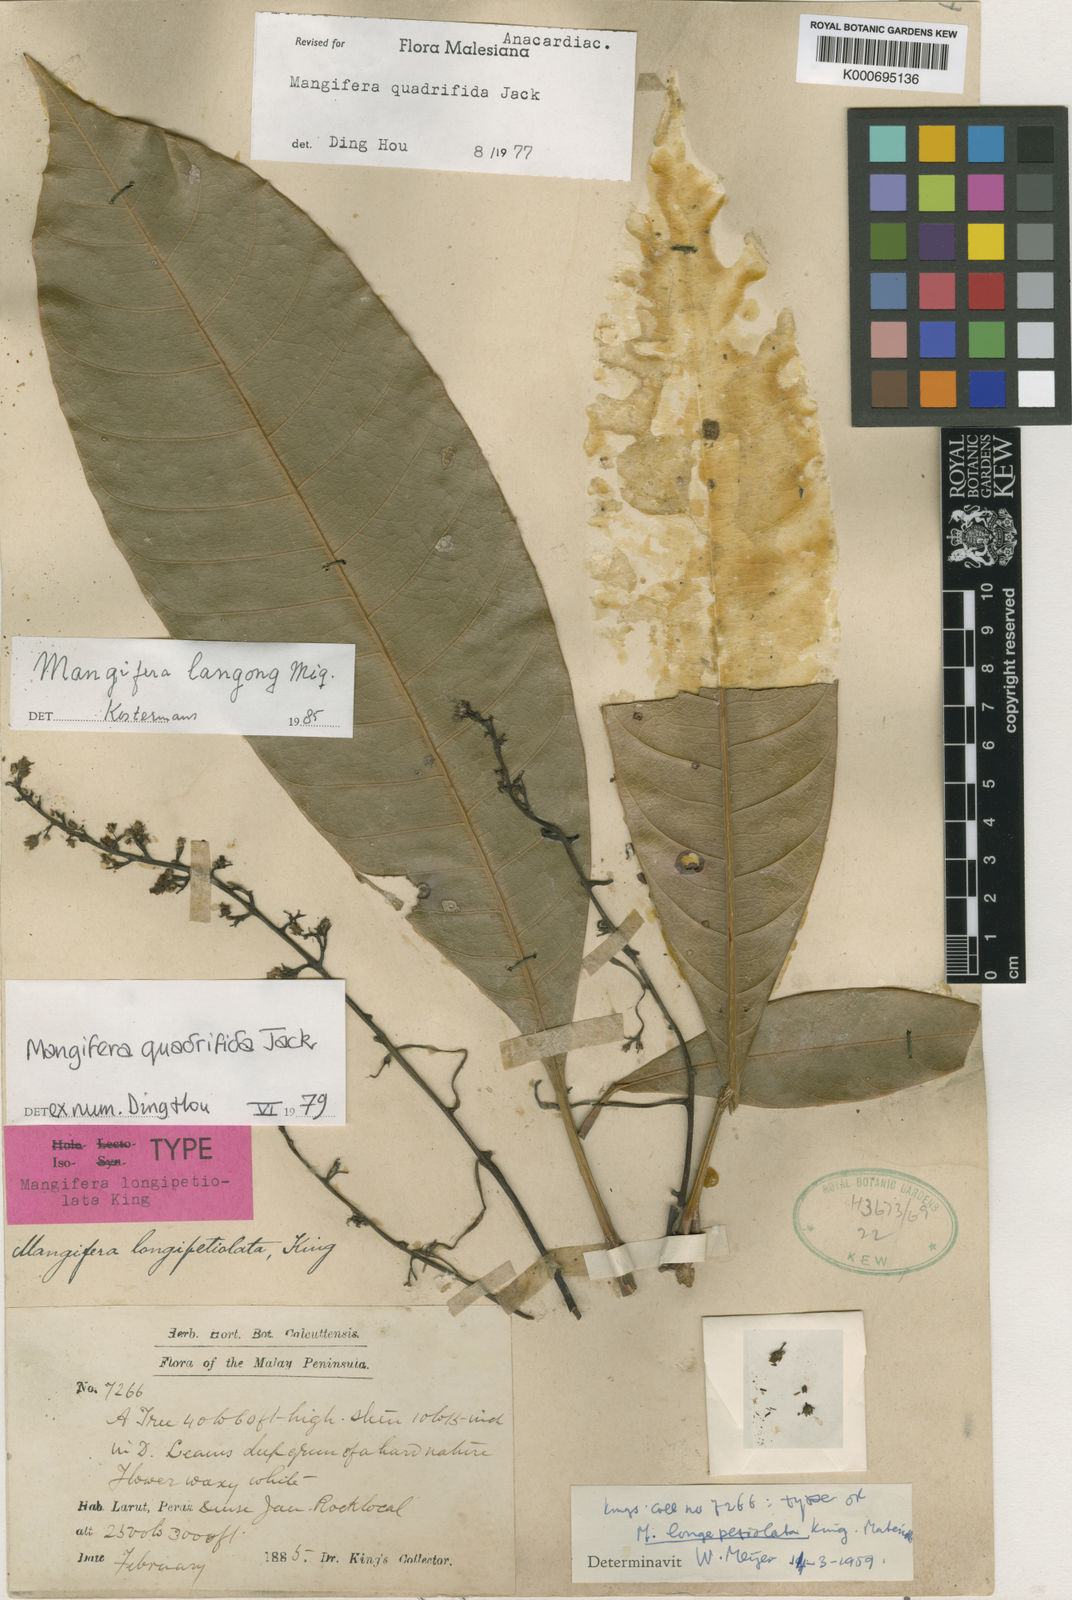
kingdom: Plantae
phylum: Tracheophyta
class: Magnoliopsida
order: Sapindales
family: Anacardiaceae
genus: Mangifera
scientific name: Mangifera quadrifida
